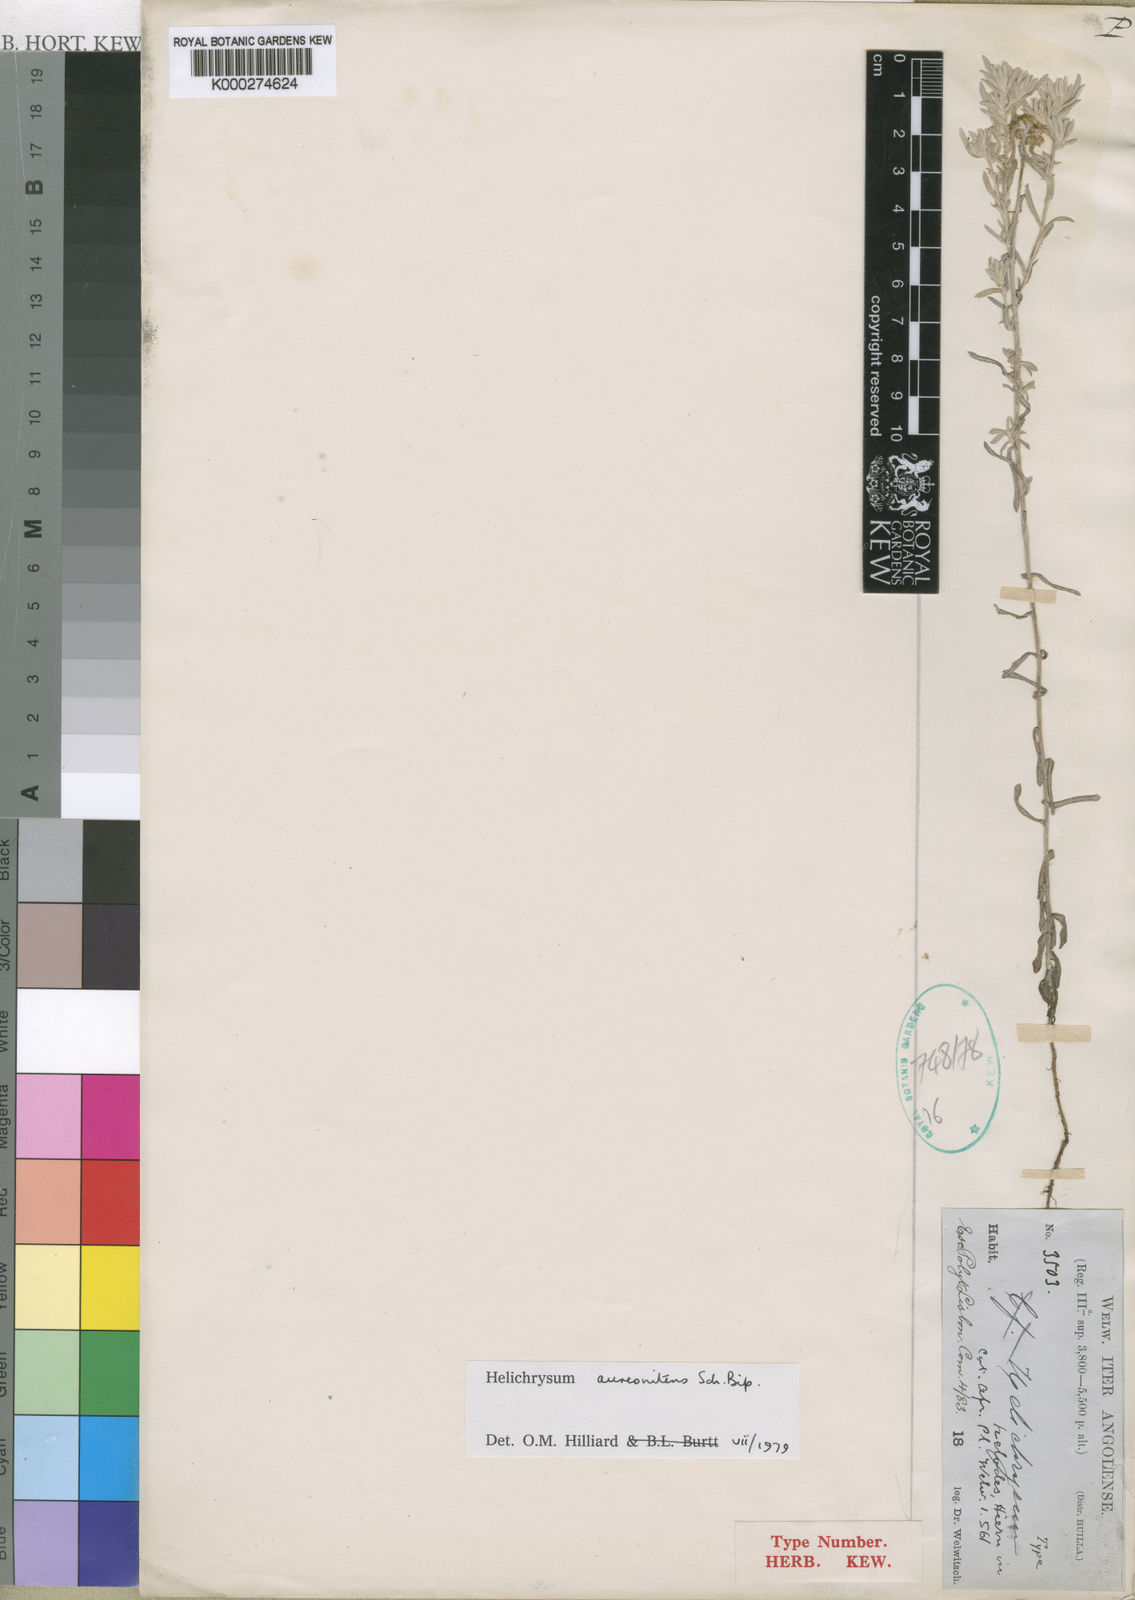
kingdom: Plantae
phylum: Tracheophyta
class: Magnoliopsida
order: Asterales
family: Asteraceae
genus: Helichrysum
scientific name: Helichrysum splendidum
